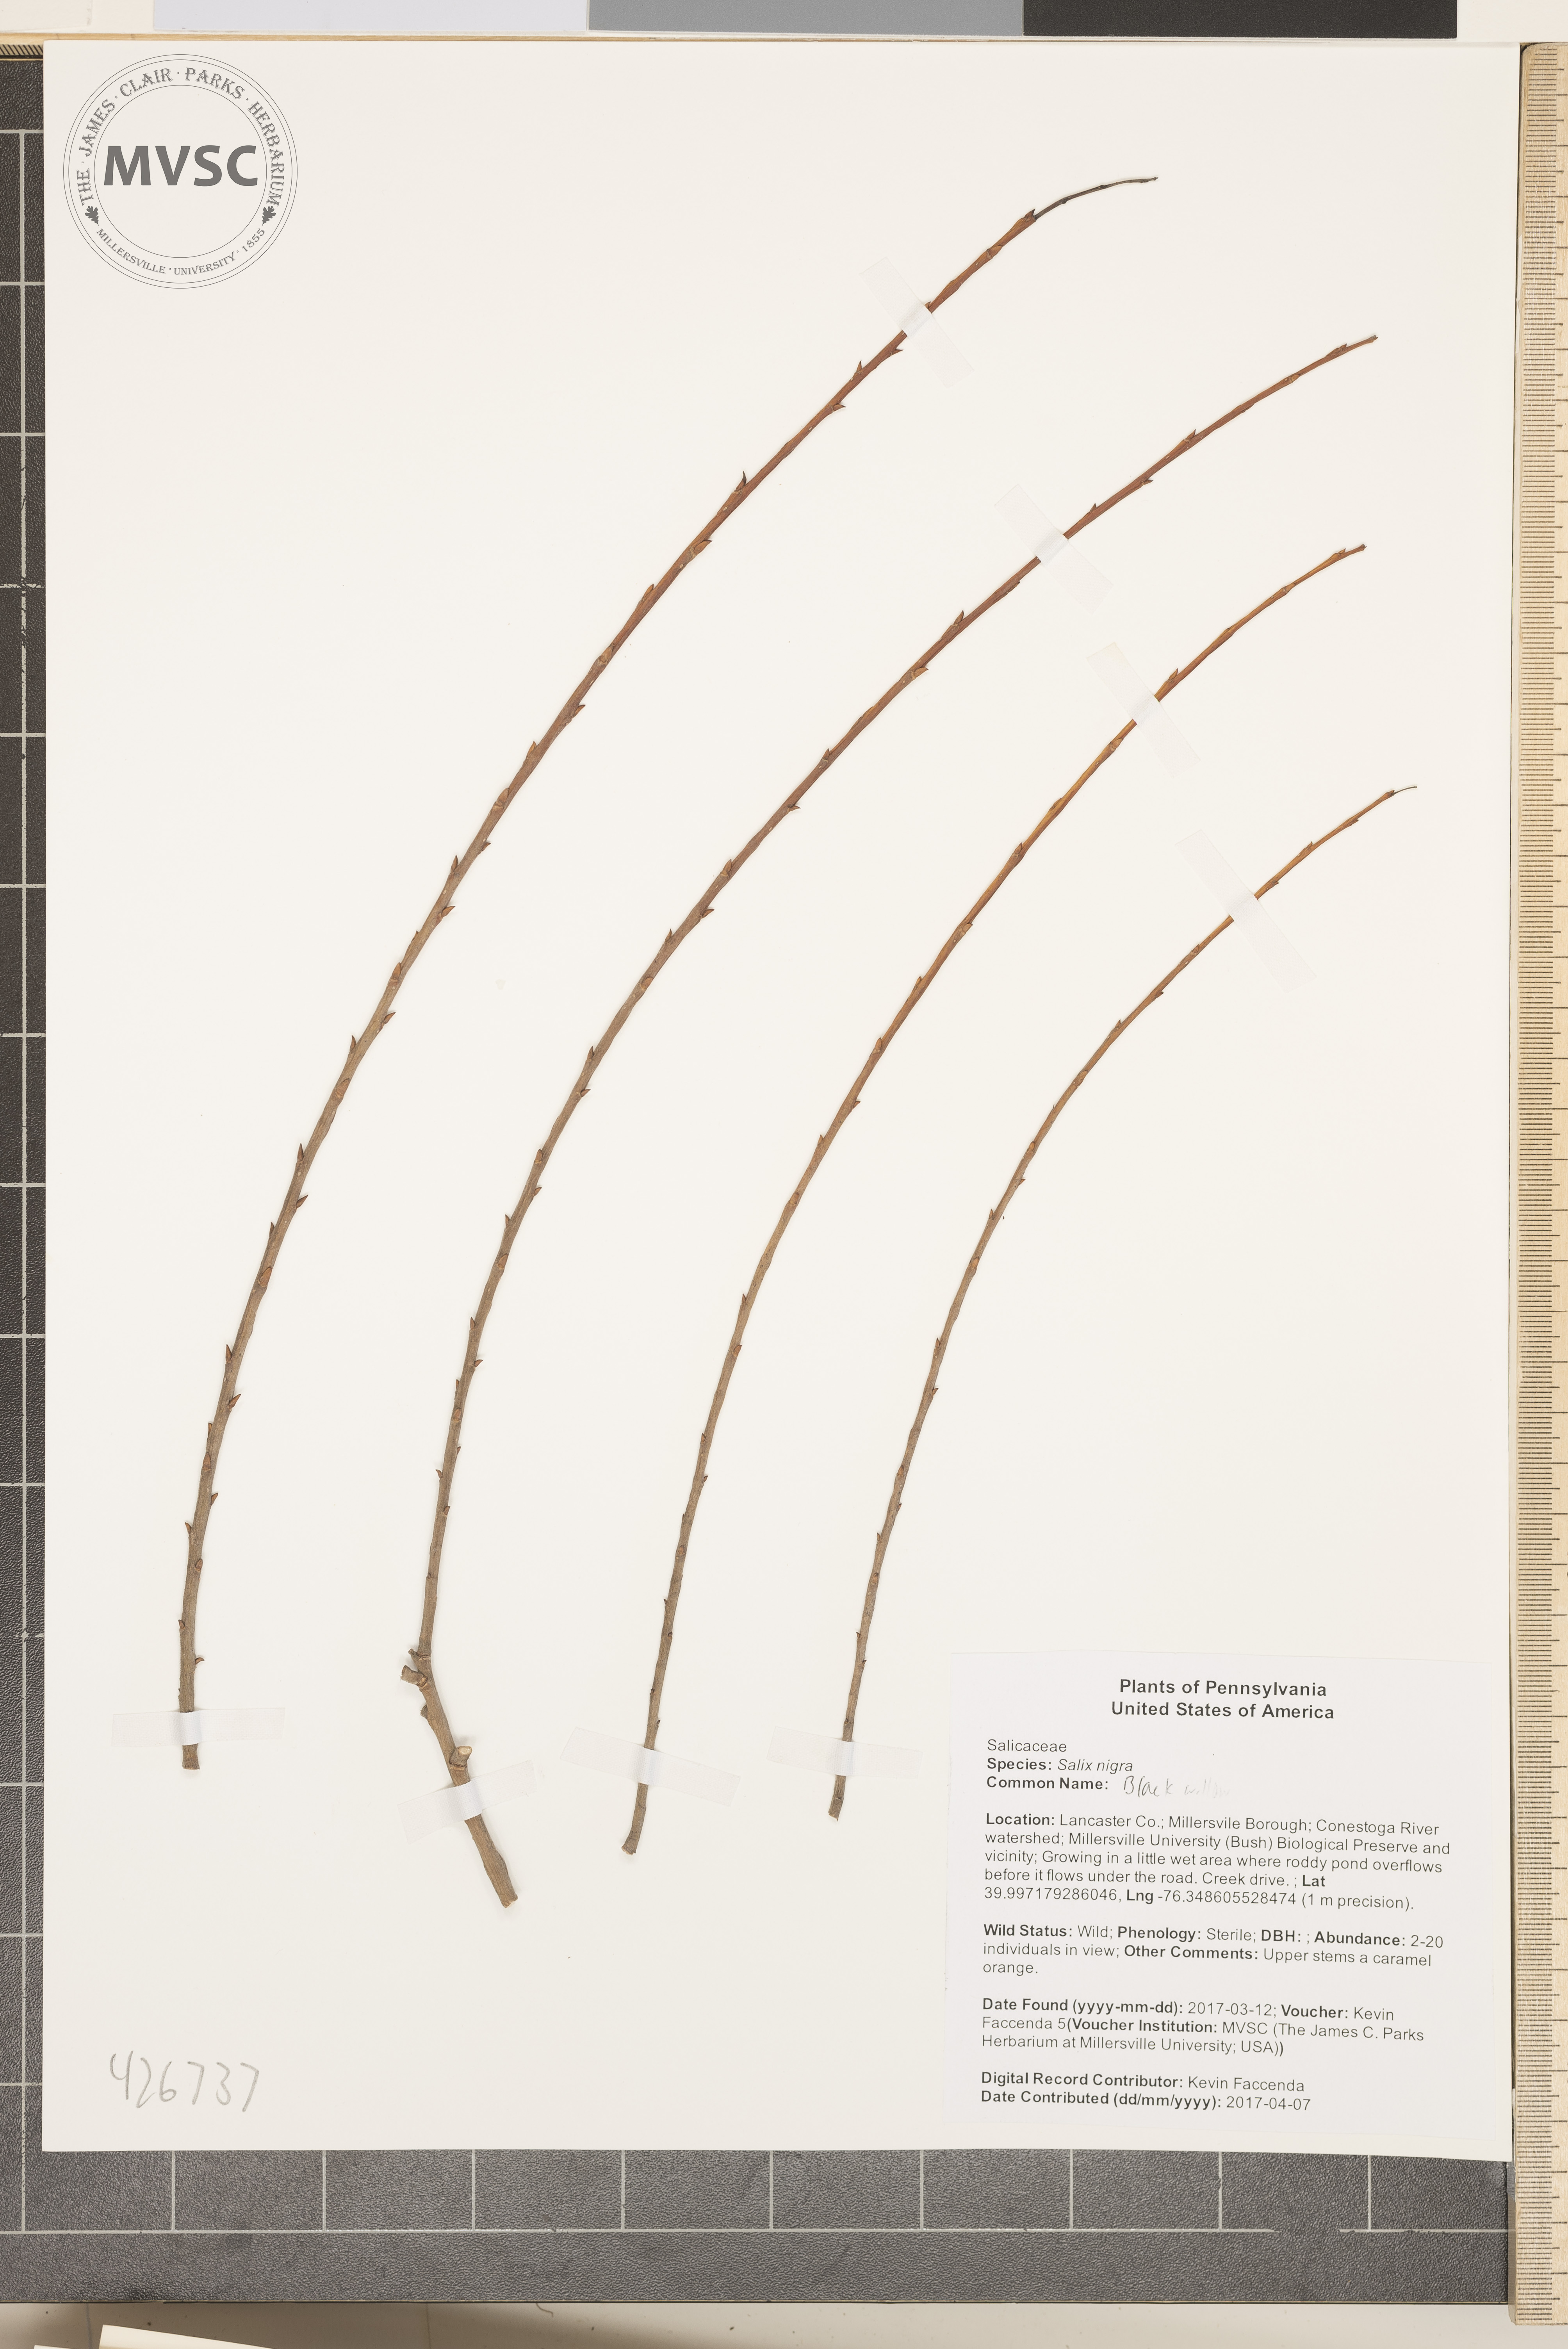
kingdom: Plantae
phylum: Tracheophyta
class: Magnoliopsida
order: Malpighiales
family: Salicaceae
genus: Salix
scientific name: Salix nigra
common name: Black willow
